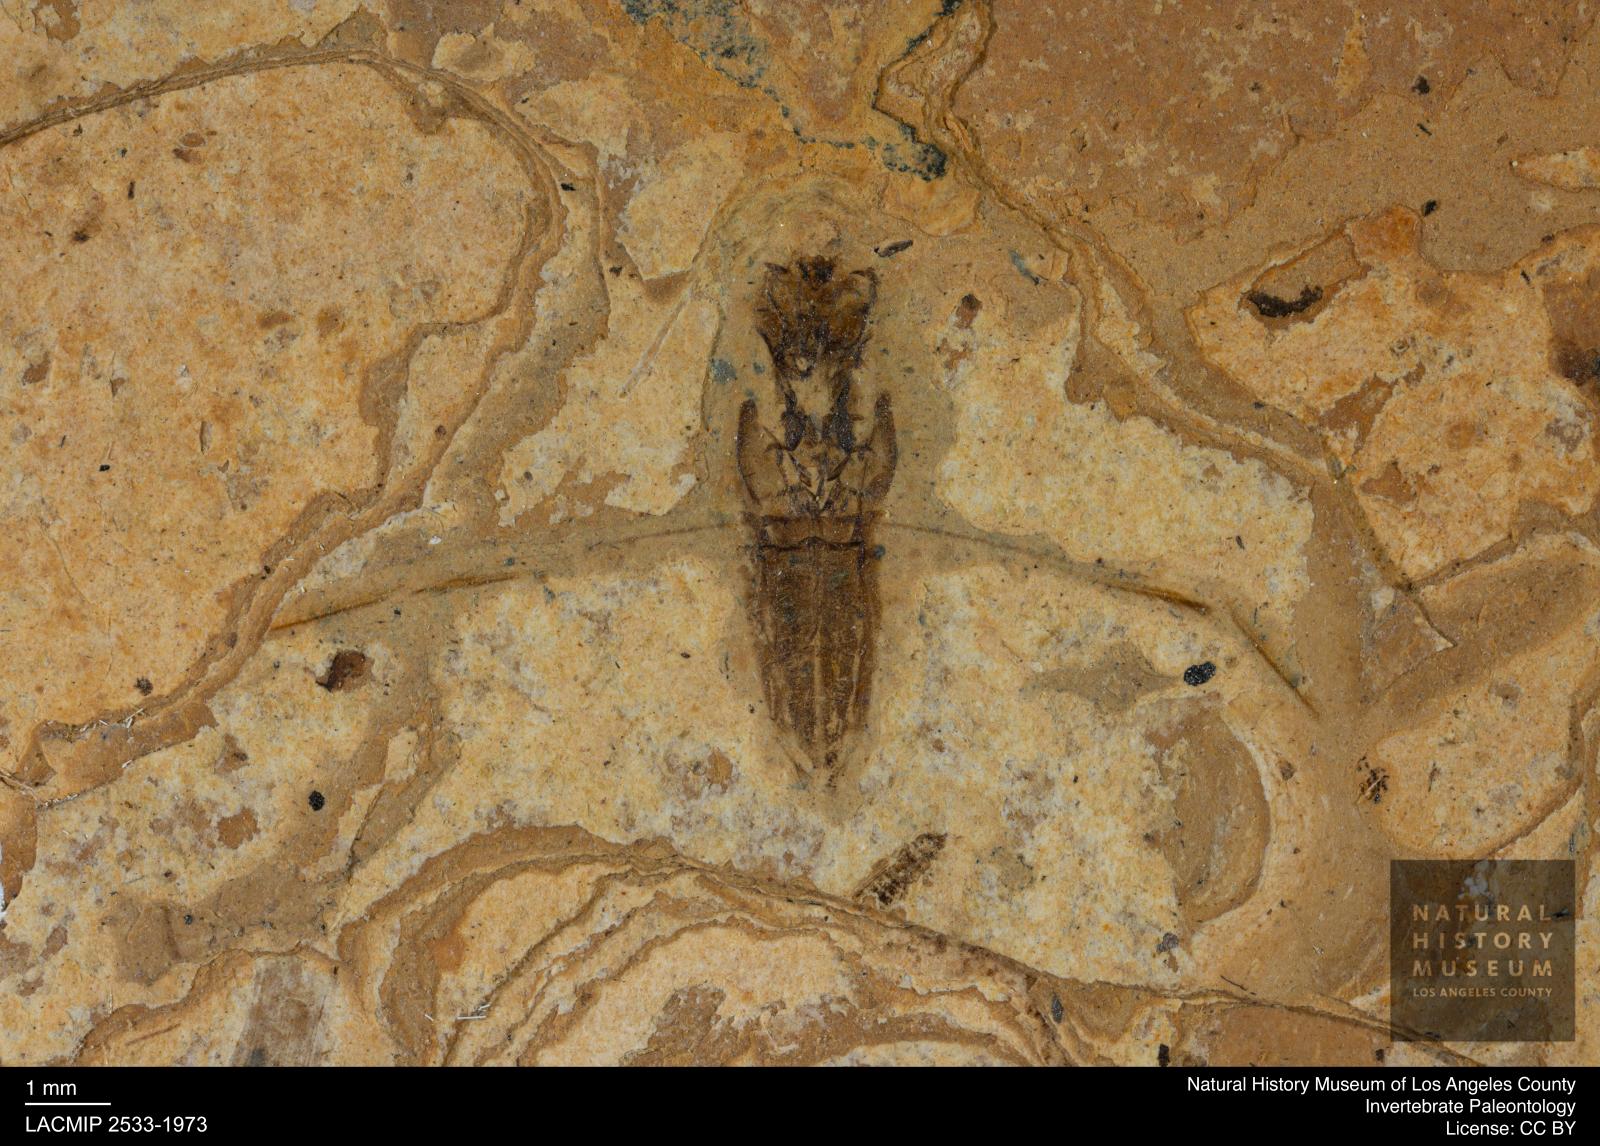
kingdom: Animalia
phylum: Arthropoda
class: Insecta
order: Hemiptera
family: Notonectidae
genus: Anisops
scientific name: Anisops Notonecta deichmuelleri
